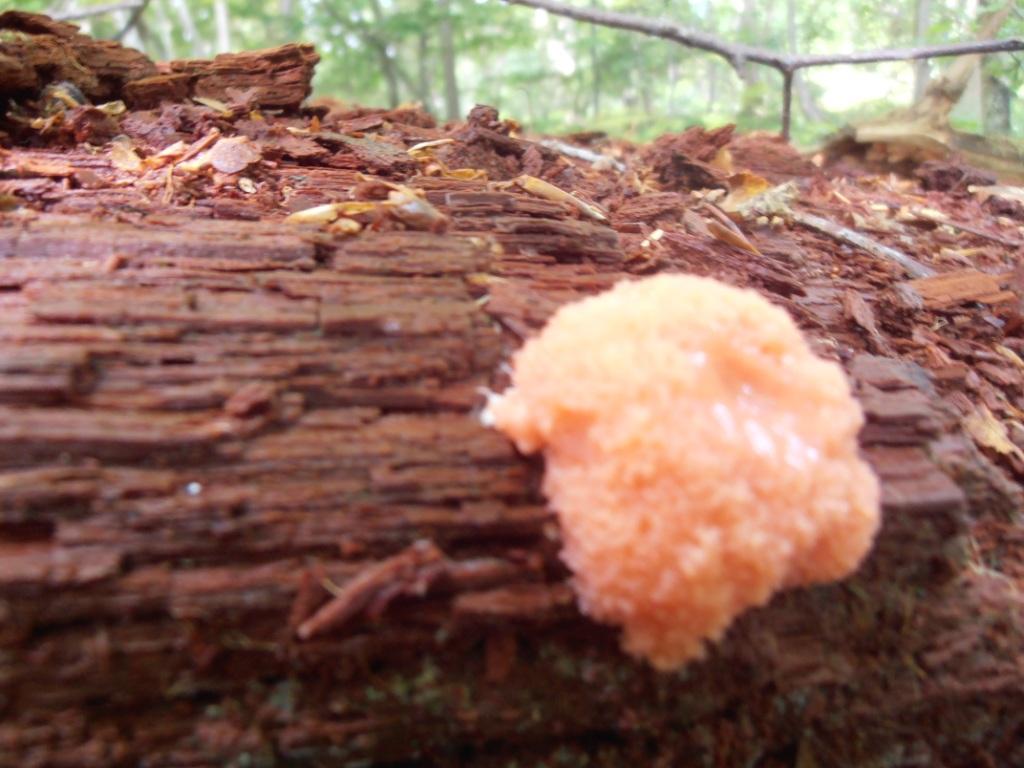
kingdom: Protozoa
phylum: Mycetozoa
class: Myxomycetes
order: Cribrariales
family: Tubiferaceae
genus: Tubifera
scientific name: Tubifera ferruginosa
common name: kanel-støvrør
